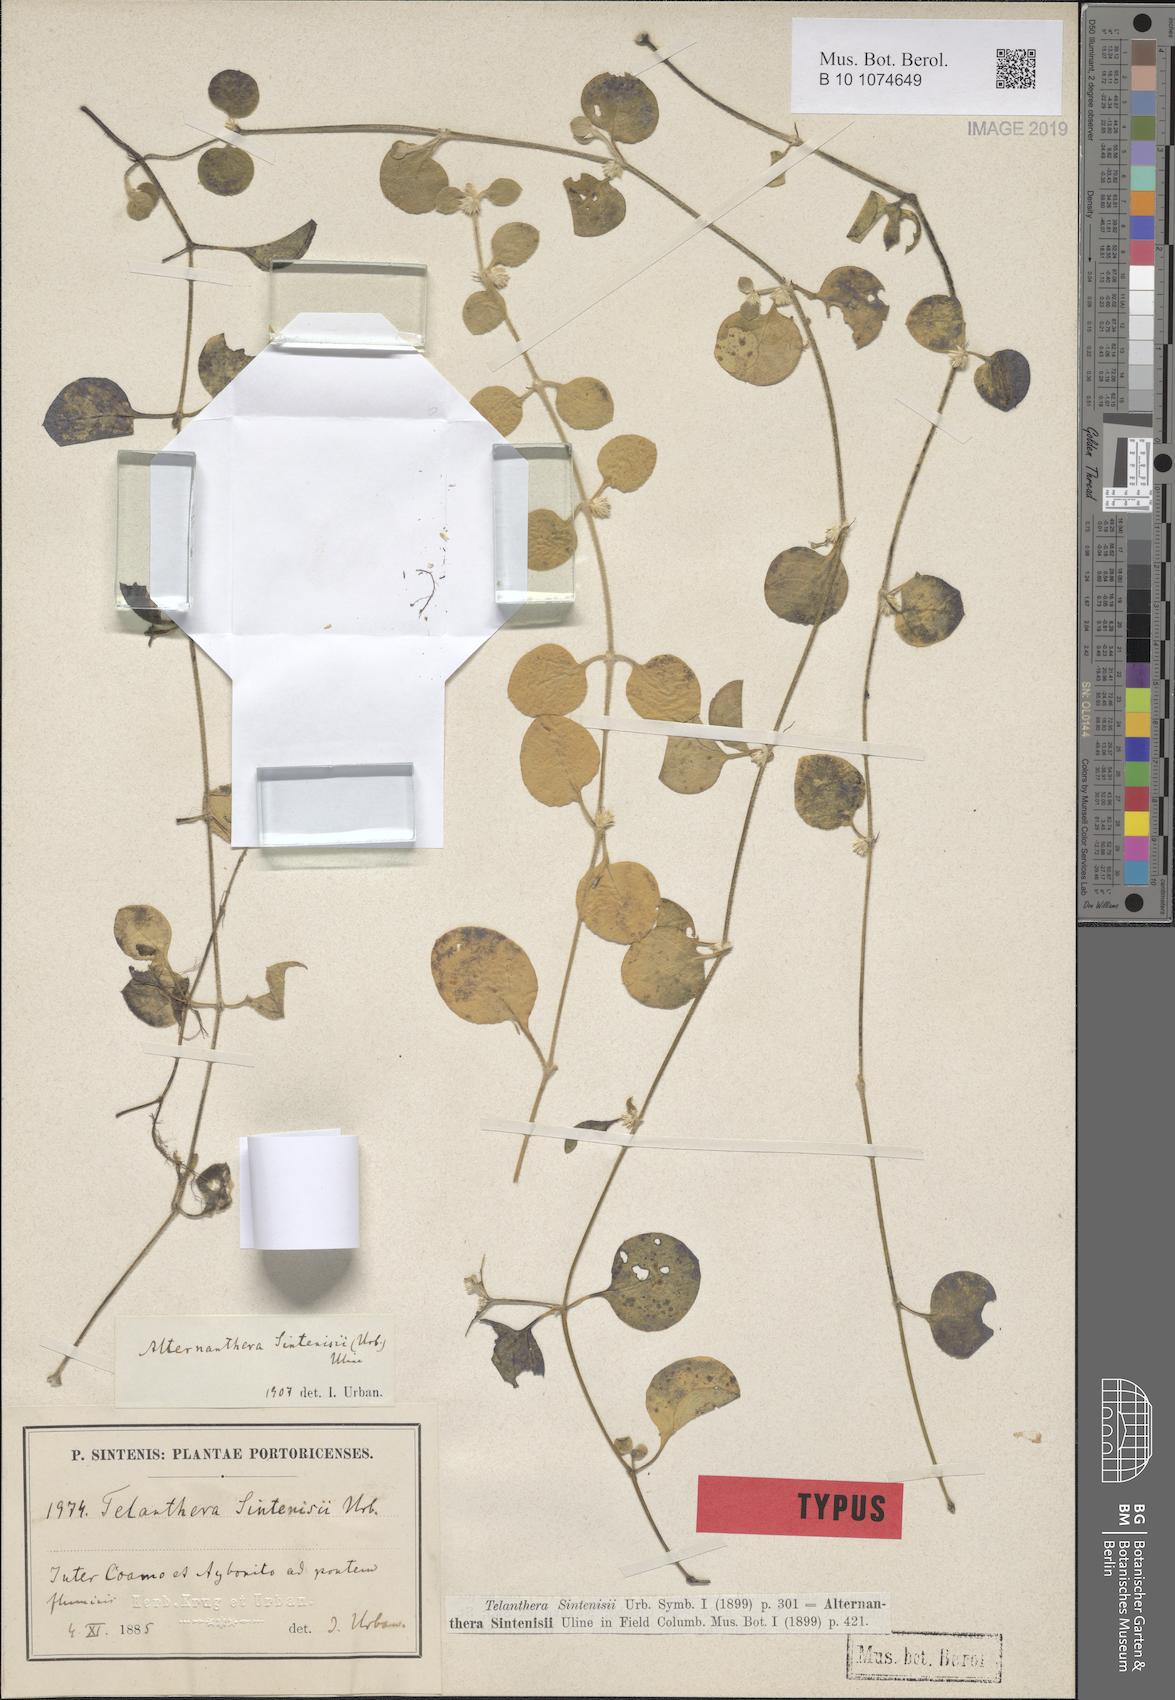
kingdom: Plantae
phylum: Tracheophyta
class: Magnoliopsida
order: Caryophyllales
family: Amaranthaceae
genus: Alternanthera
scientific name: Alternanthera crucis
